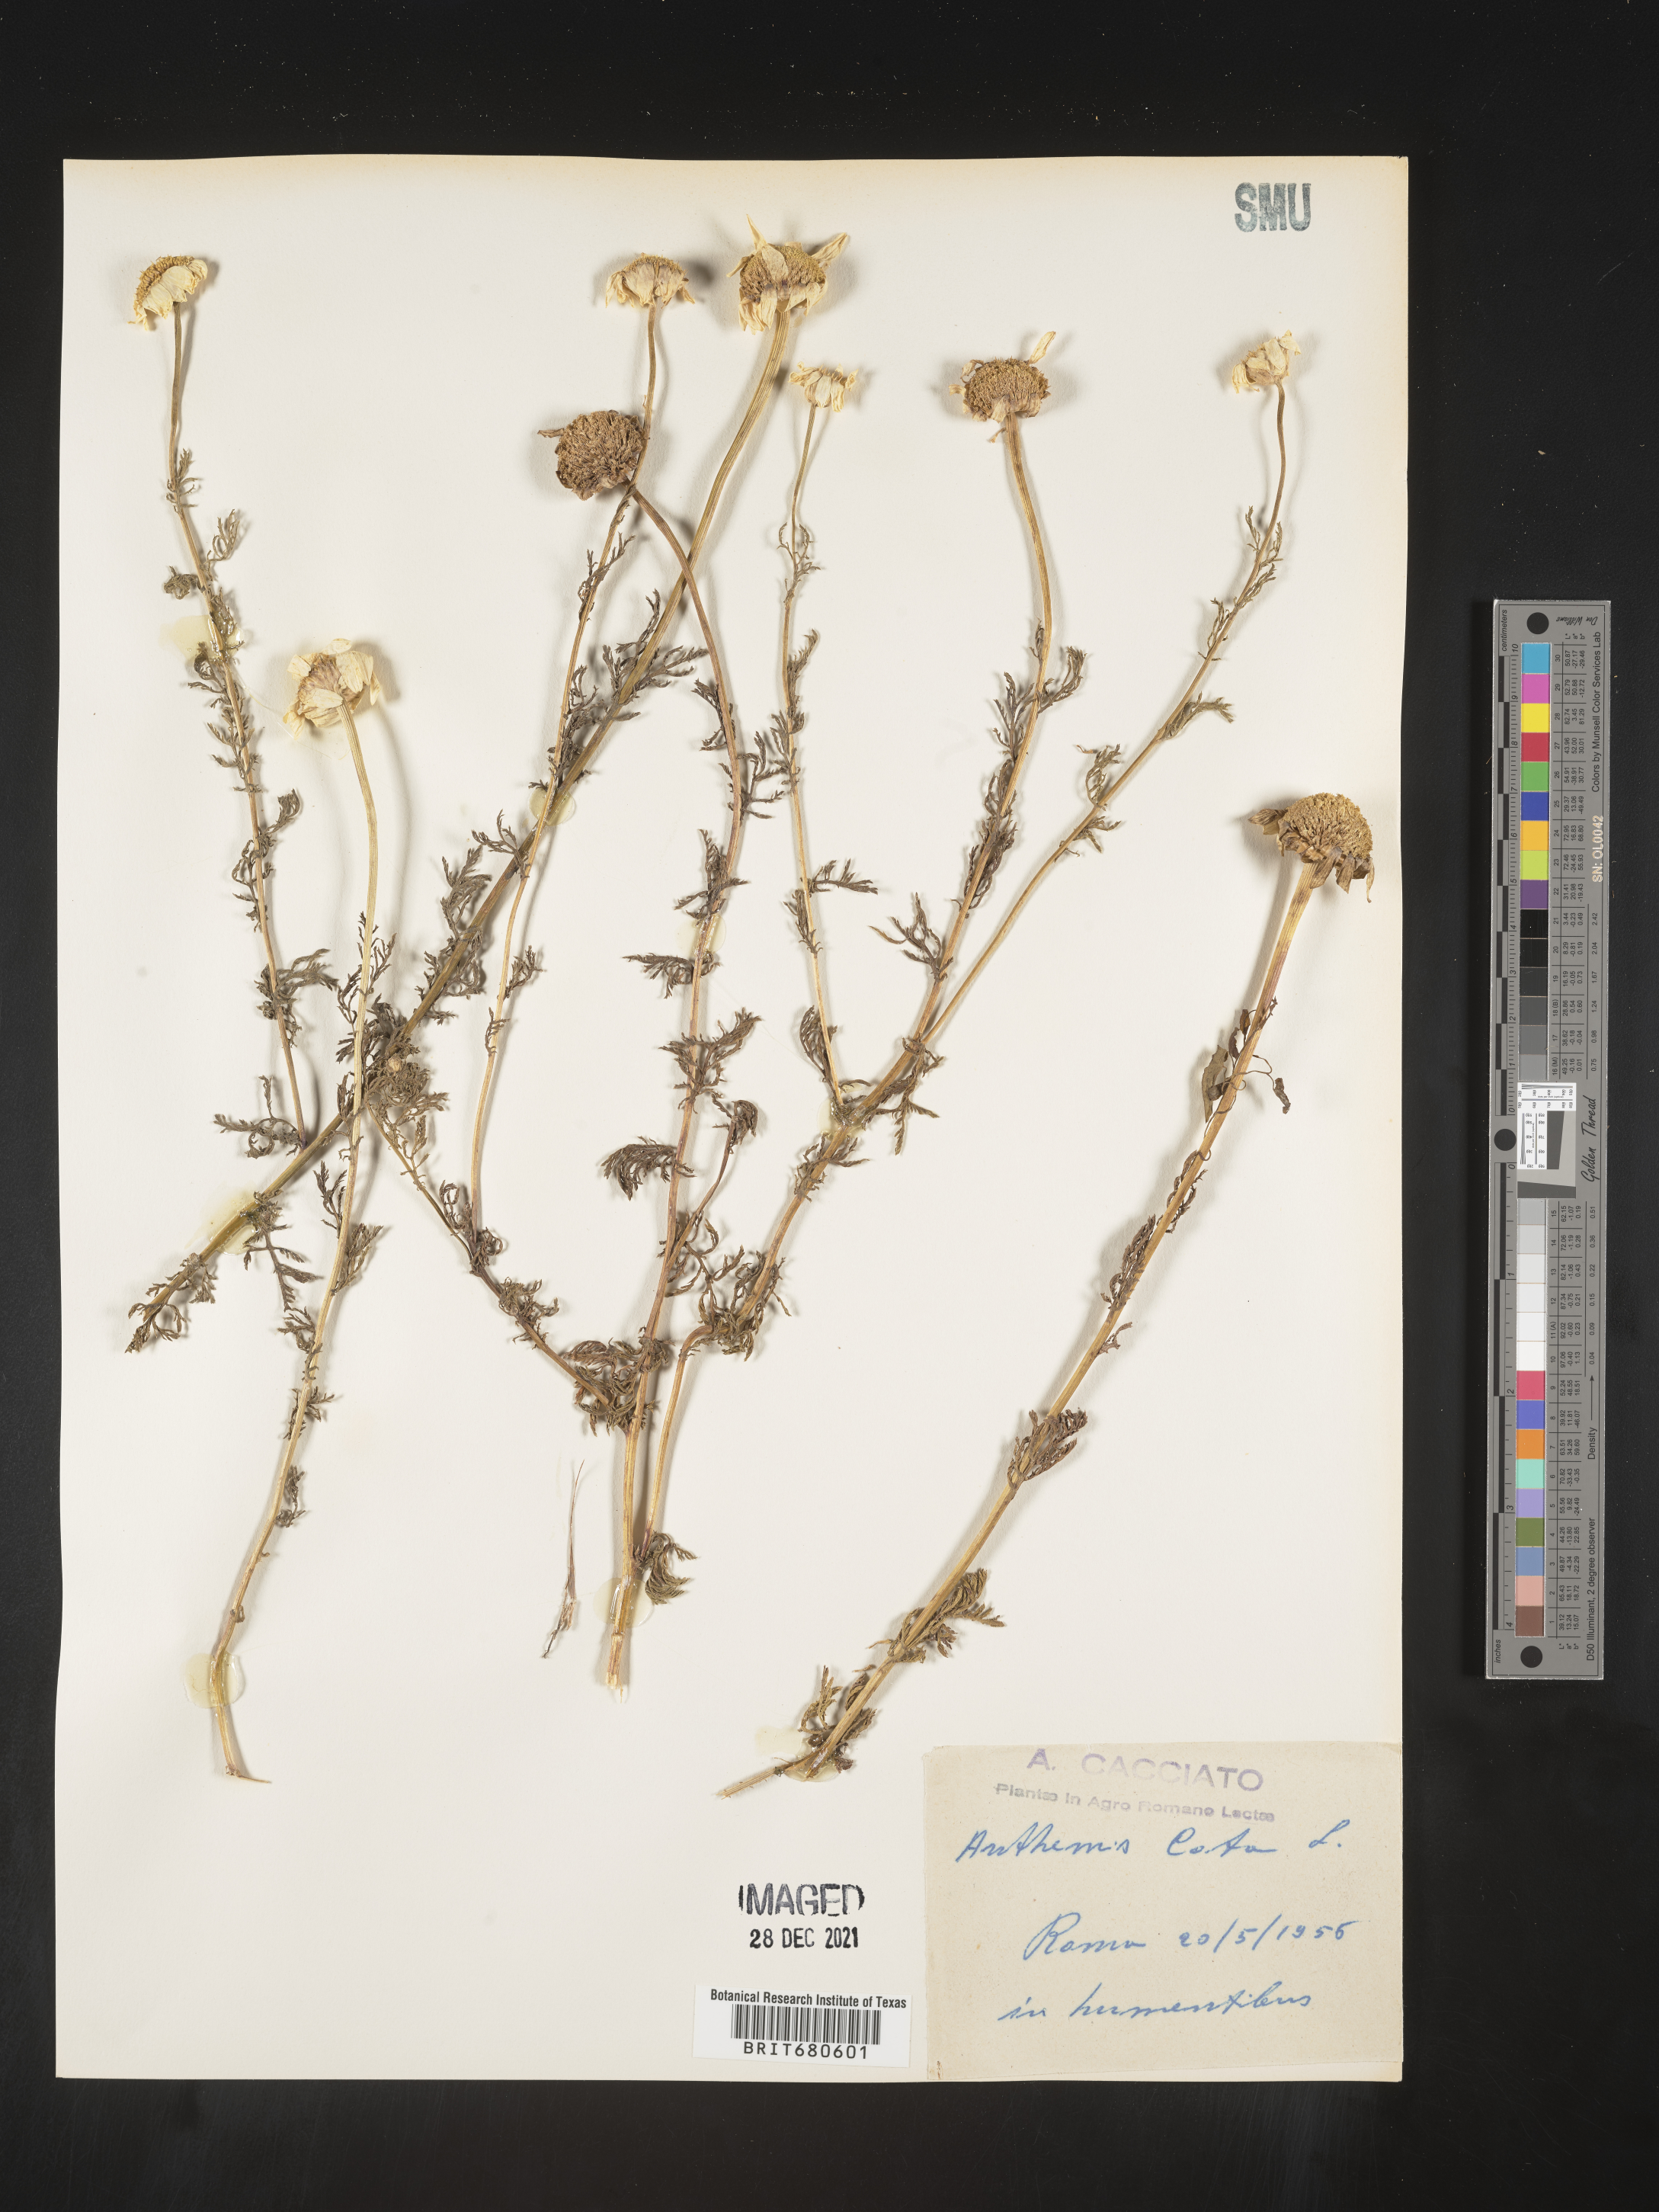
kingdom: Plantae
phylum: Tracheophyta
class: Magnoliopsida
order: Asterales
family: Asteraceae
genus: Anthemis
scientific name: Anthemis
